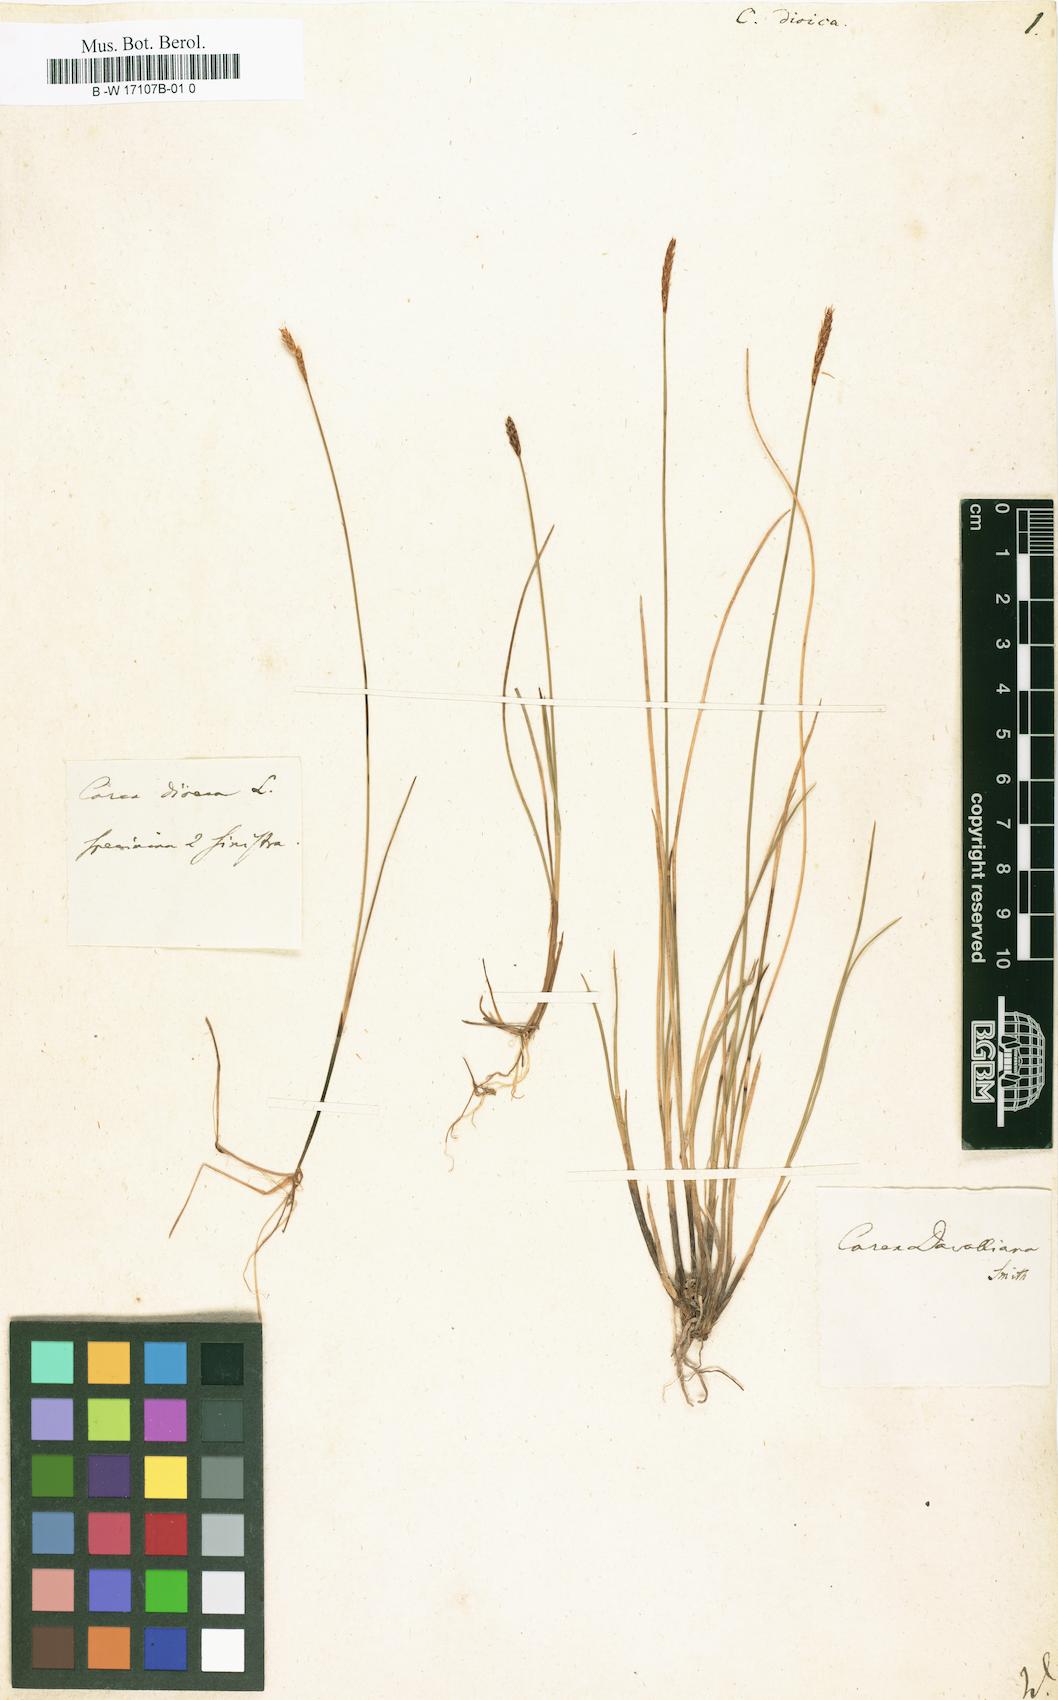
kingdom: Plantae
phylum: Tracheophyta
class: Liliopsida
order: Poales
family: Cyperaceae
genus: Carex
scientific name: Carex dioica
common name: Dioecious sedge
